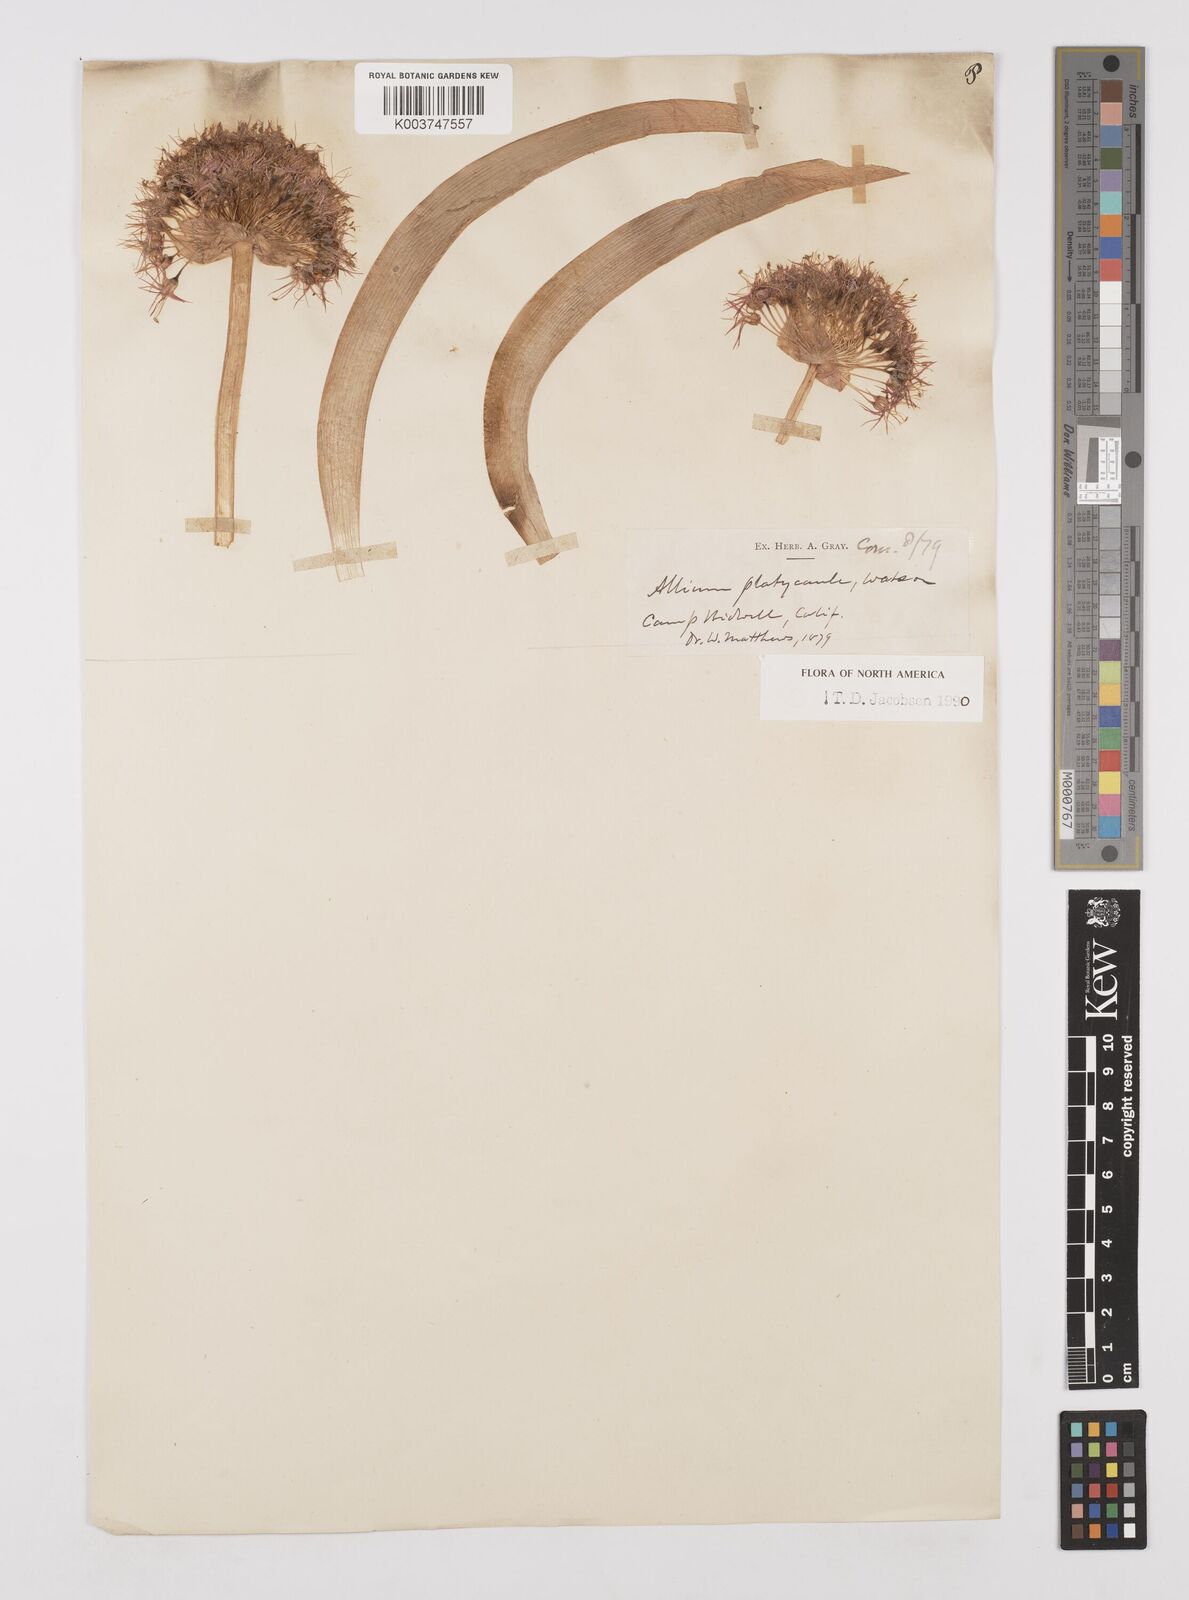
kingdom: Plantae
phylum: Tracheophyta
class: Liliopsida
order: Asparagales
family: Amaryllidaceae
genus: Allium
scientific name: Allium platycaule
